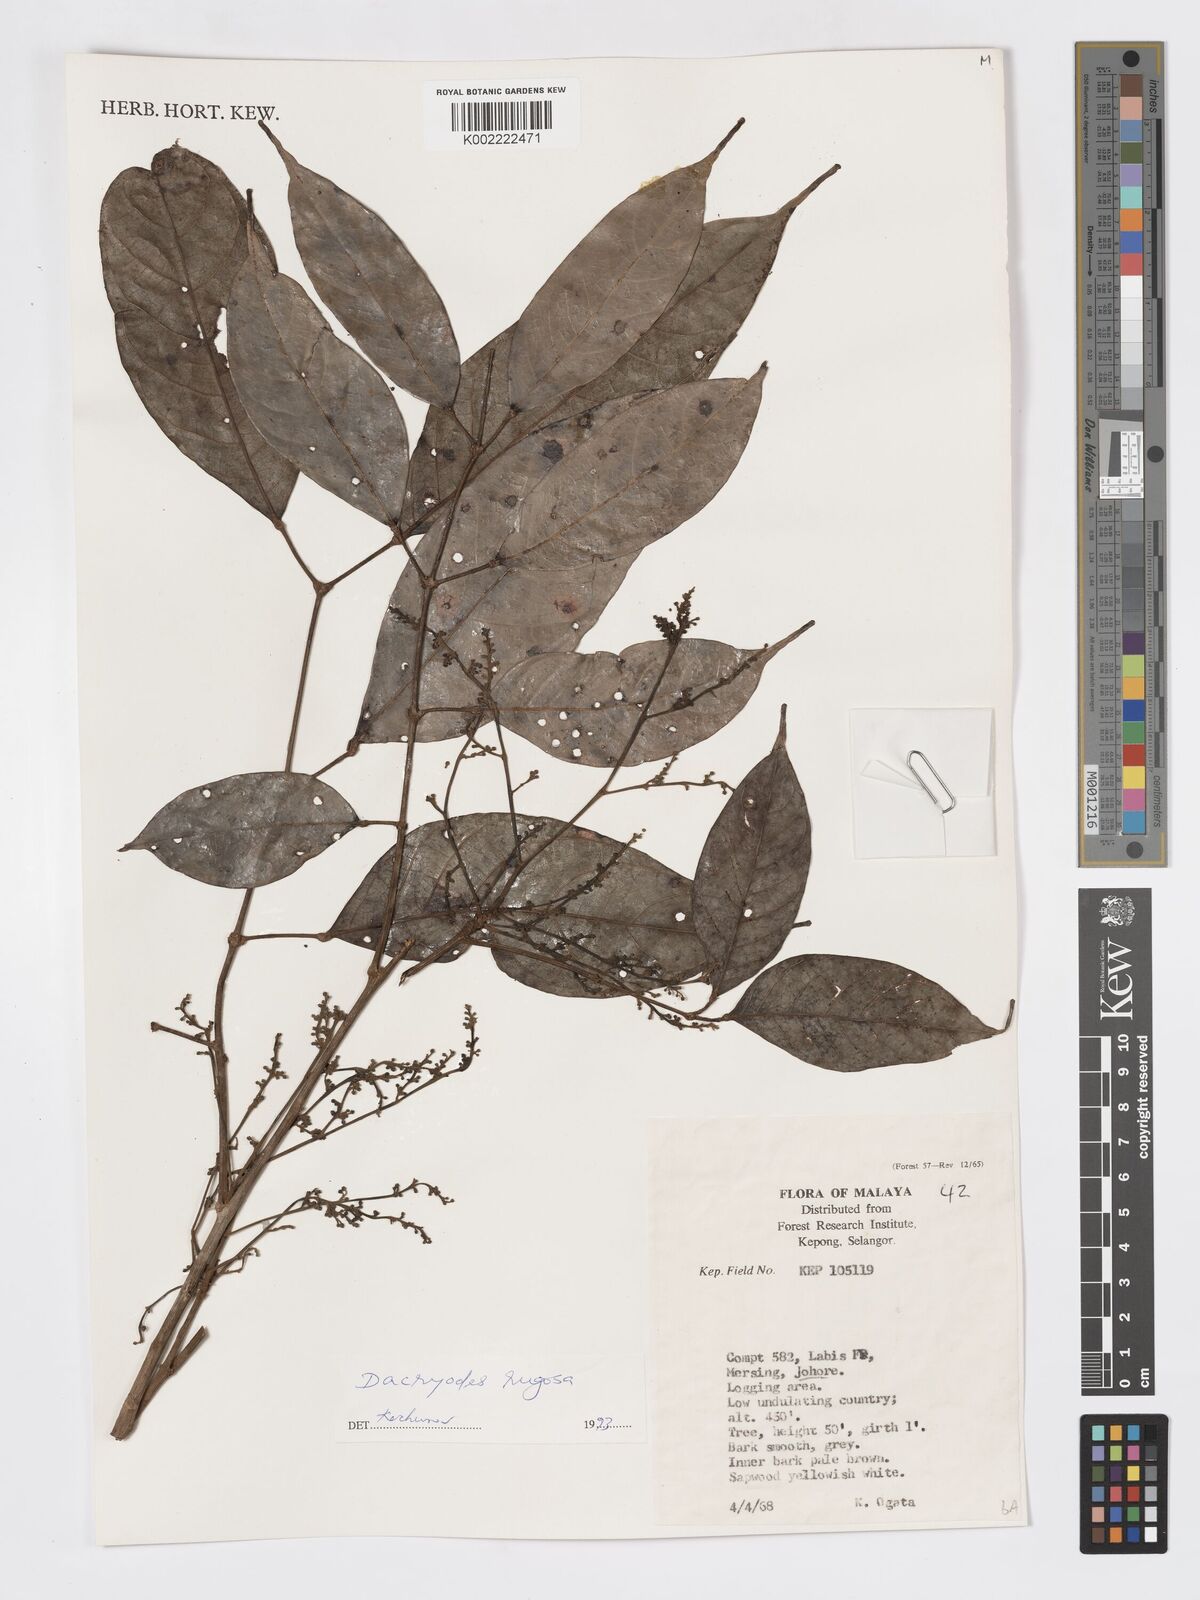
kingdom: Plantae
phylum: Tracheophyta
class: Magnoliopsida
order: Sapindales
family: Burseraceae
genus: Dacryodes
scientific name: Dacryodes rugosa
